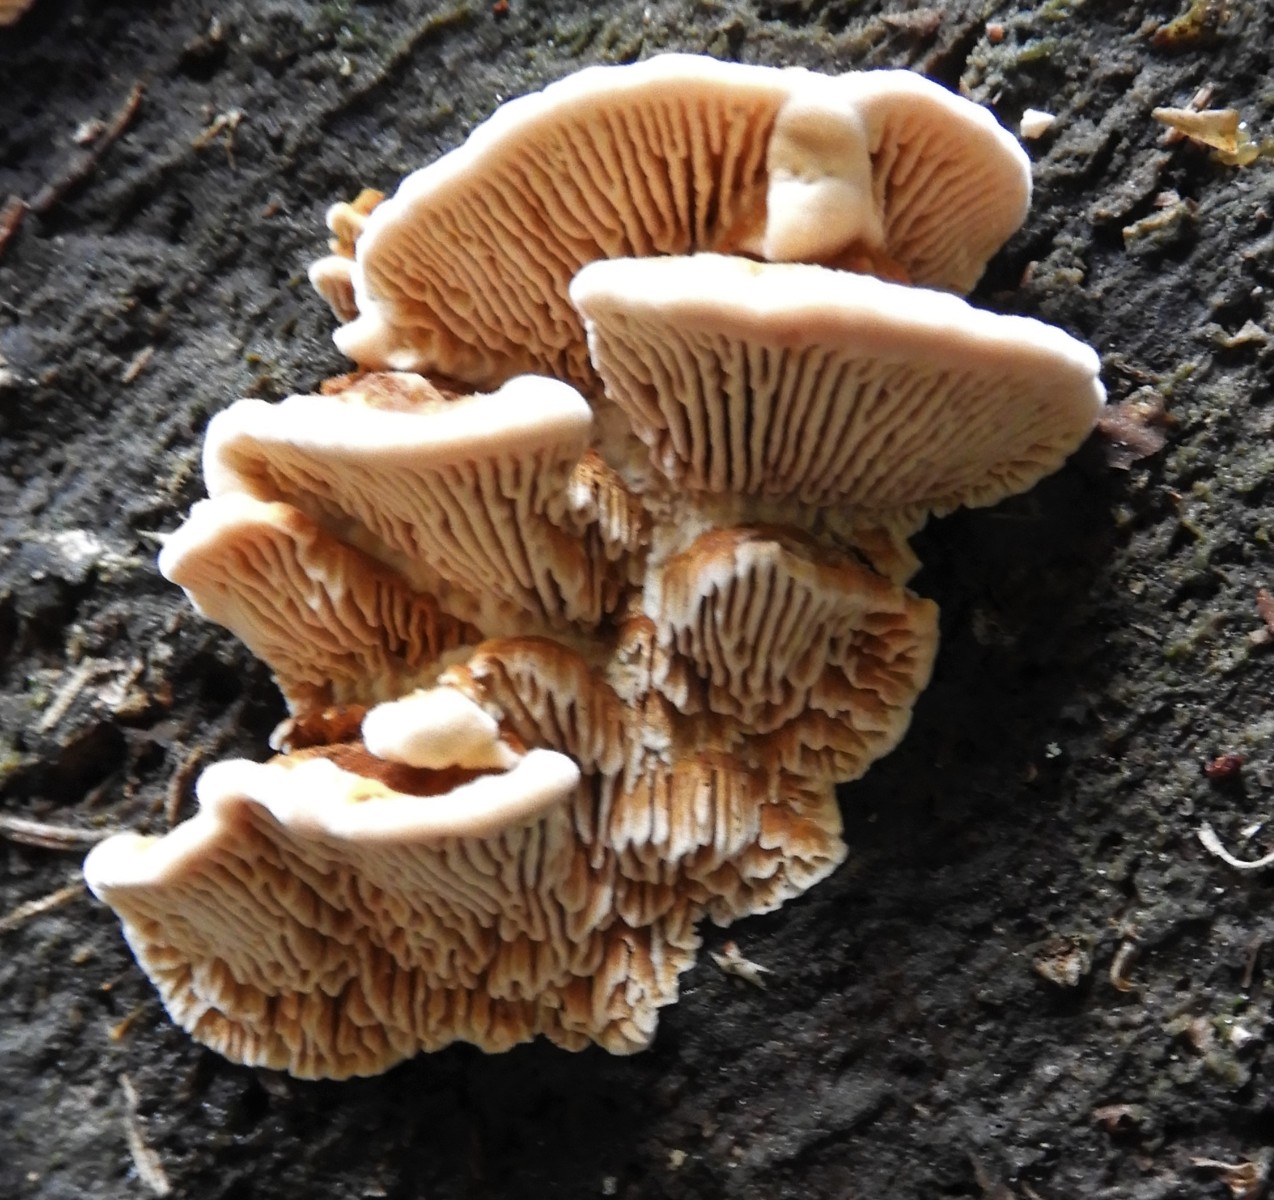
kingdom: Fungi
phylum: Basidiomycota
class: Agaricomycetes
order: Gloeophyllales
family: Gloeophyllaceae
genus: Gloeophyllum
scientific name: Gloeophyllum sepiarium
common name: fyrre-korkhat
